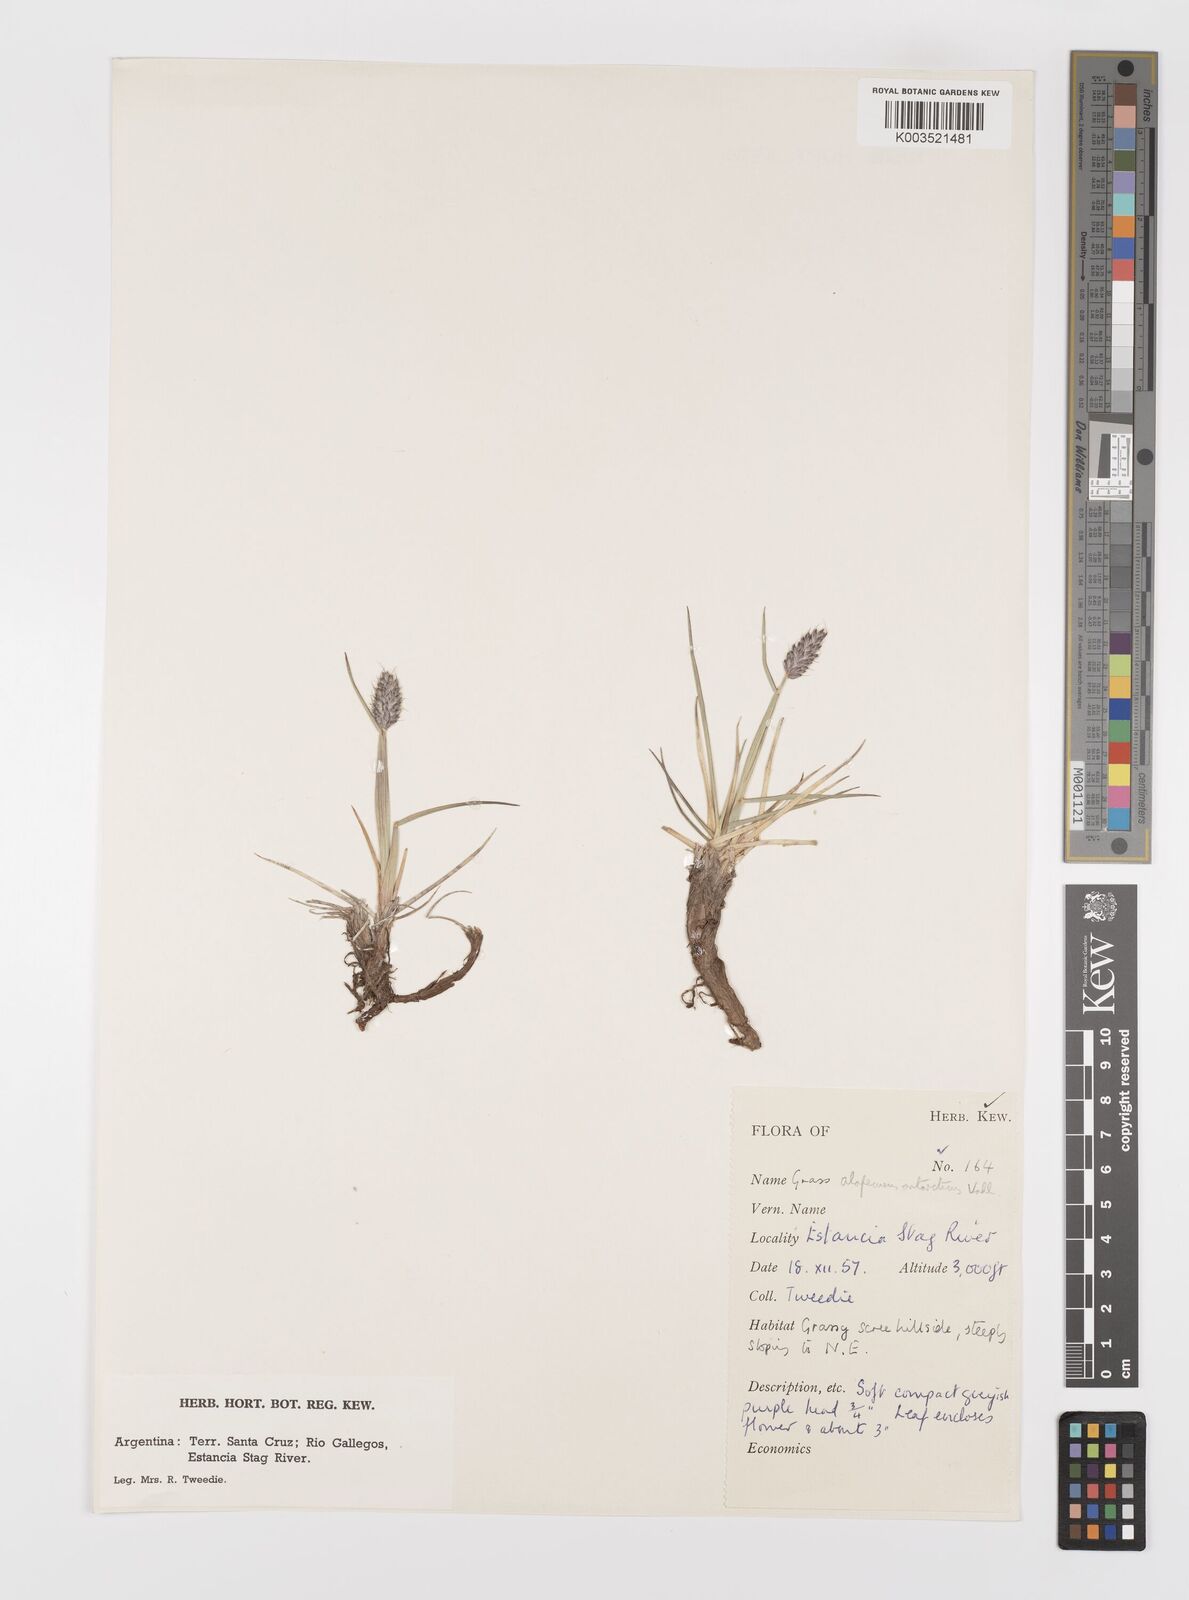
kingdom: Plantae
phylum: Tracheophyta
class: Liliopsida
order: Poales
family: Poaceae
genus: Alopecurus
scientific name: Alopecurus magellanicus
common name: Alpine foxtail
